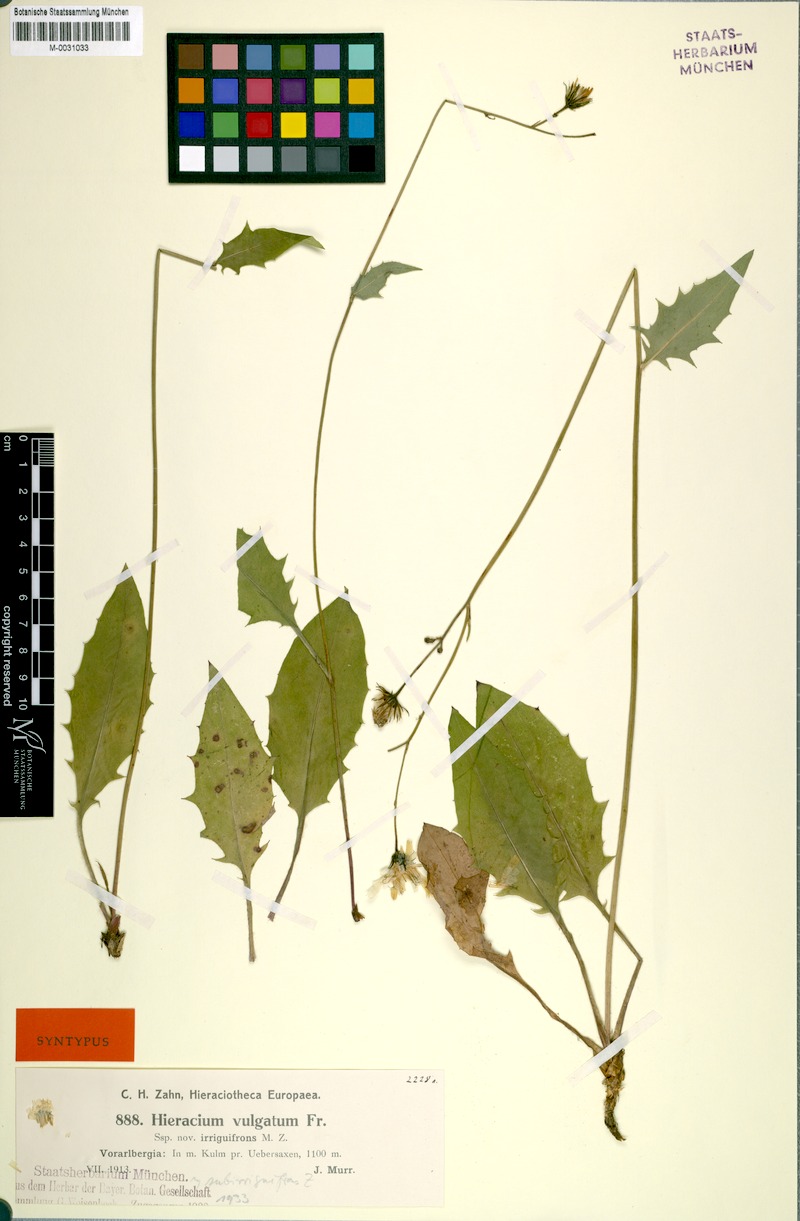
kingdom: Plantae
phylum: Tracheophyta
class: Magnoliopsida
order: Asterales
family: Asteraceae
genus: Hieracium
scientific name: Hieracium lachenalii
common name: Common hawkweed
